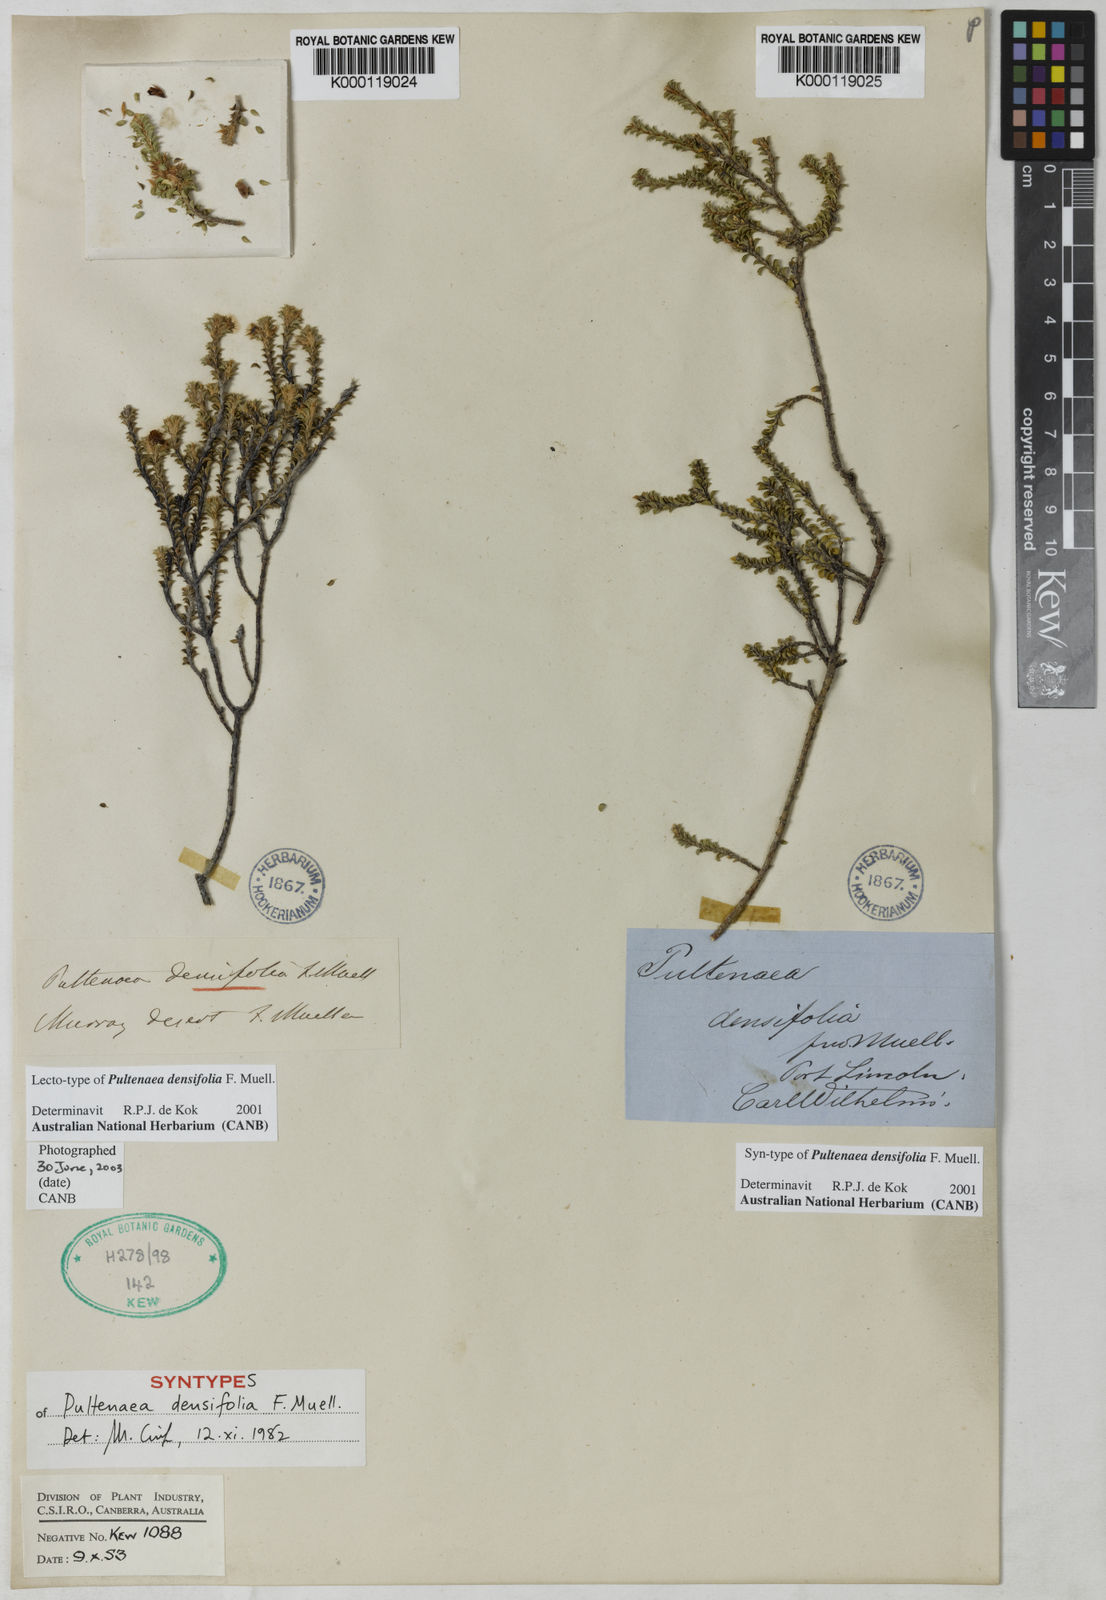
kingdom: Plantae
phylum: Tracheophyta
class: Magnoliopsida
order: Fabales
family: Fabaceae
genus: Pultenaea
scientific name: Pultenaea densifolia
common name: Dense-leaf bush-pea
